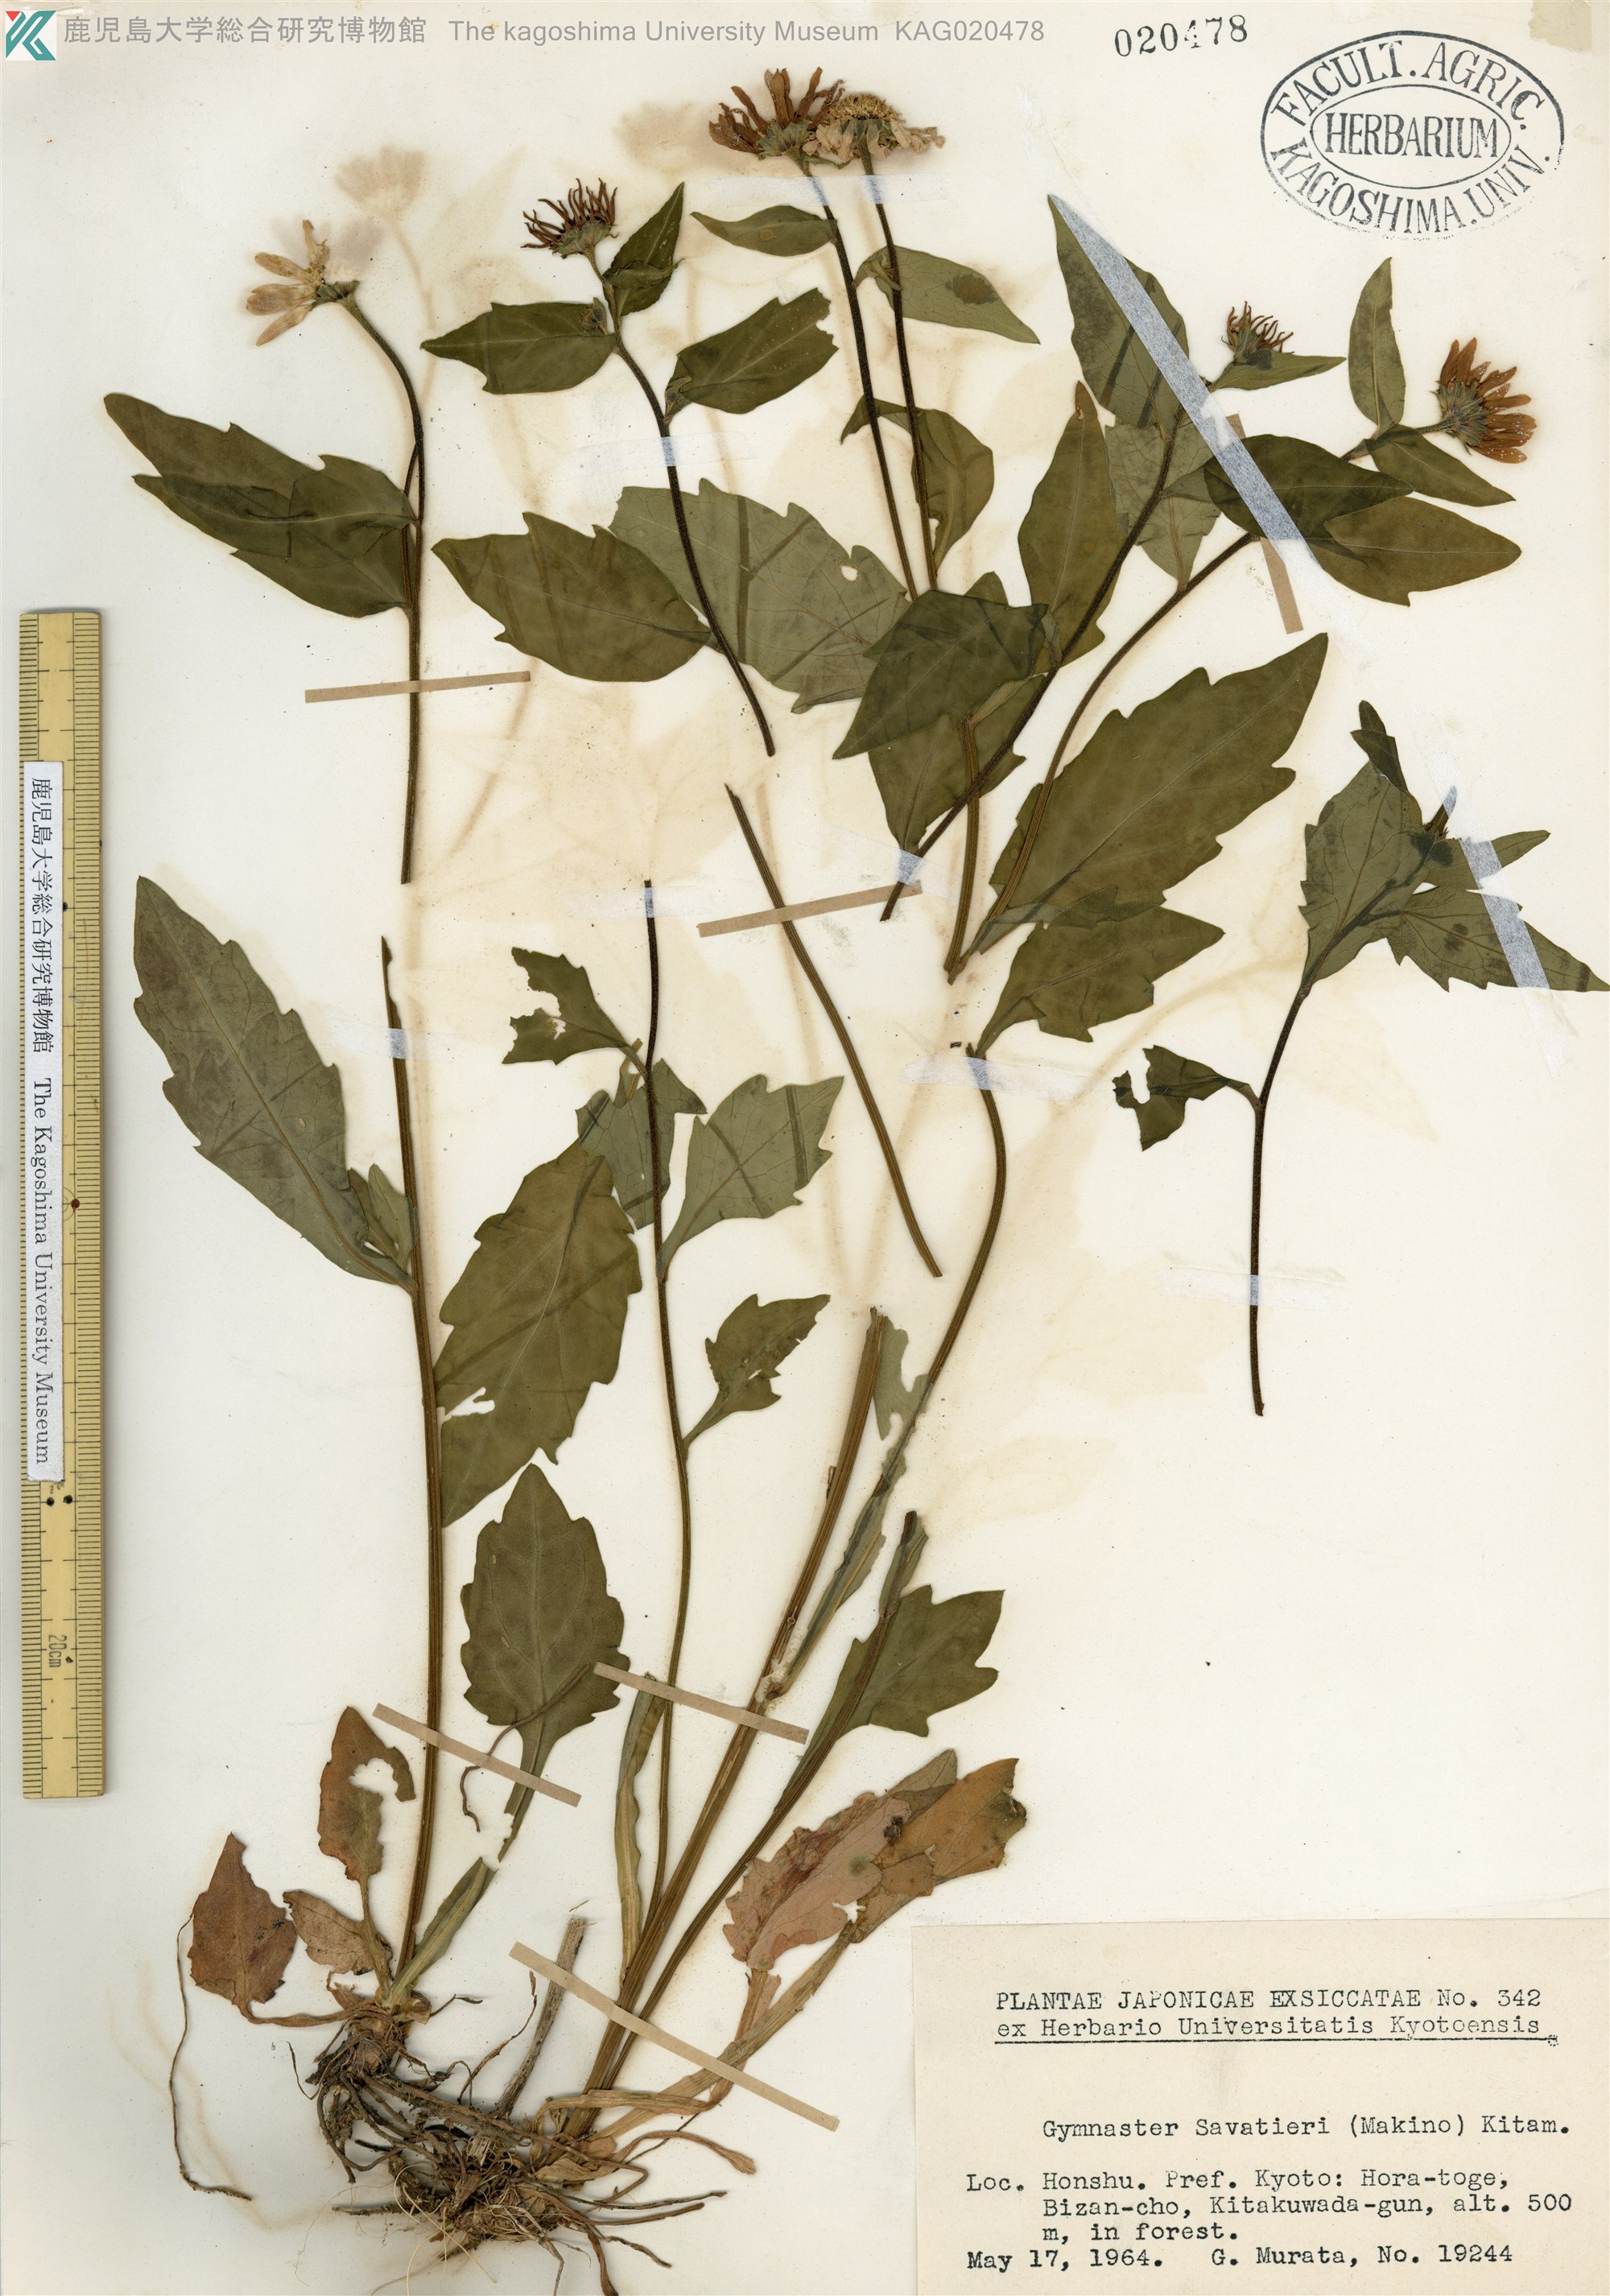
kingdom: Plantae
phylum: Tracheophyta
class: Magnoliopsida
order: Asterales
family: Asteraceae
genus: Miyamayomena
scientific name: Miyamayomena savatieri
